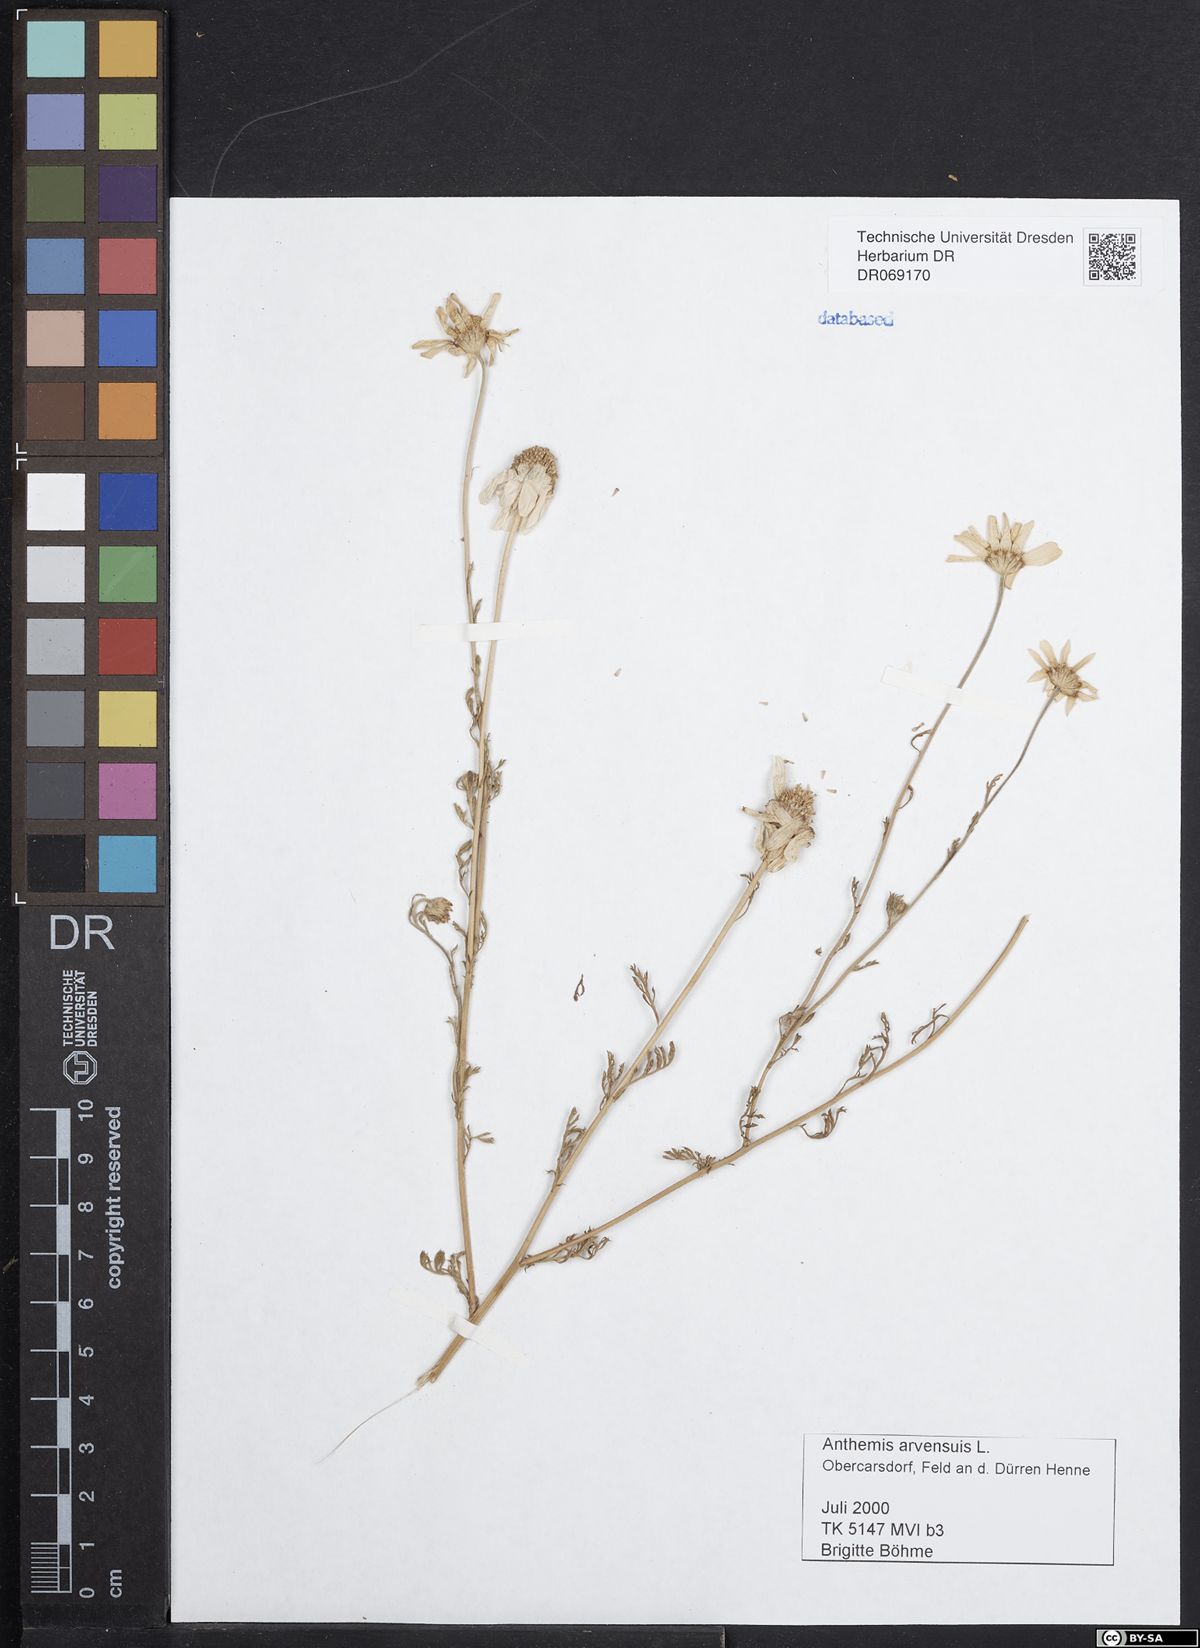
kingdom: Plantae
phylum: Tracheophyta
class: Magnoliopsida
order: Asterales
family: Asteraceae
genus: Anthemis
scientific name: Anthemis arvensis
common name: Corn chamomile
